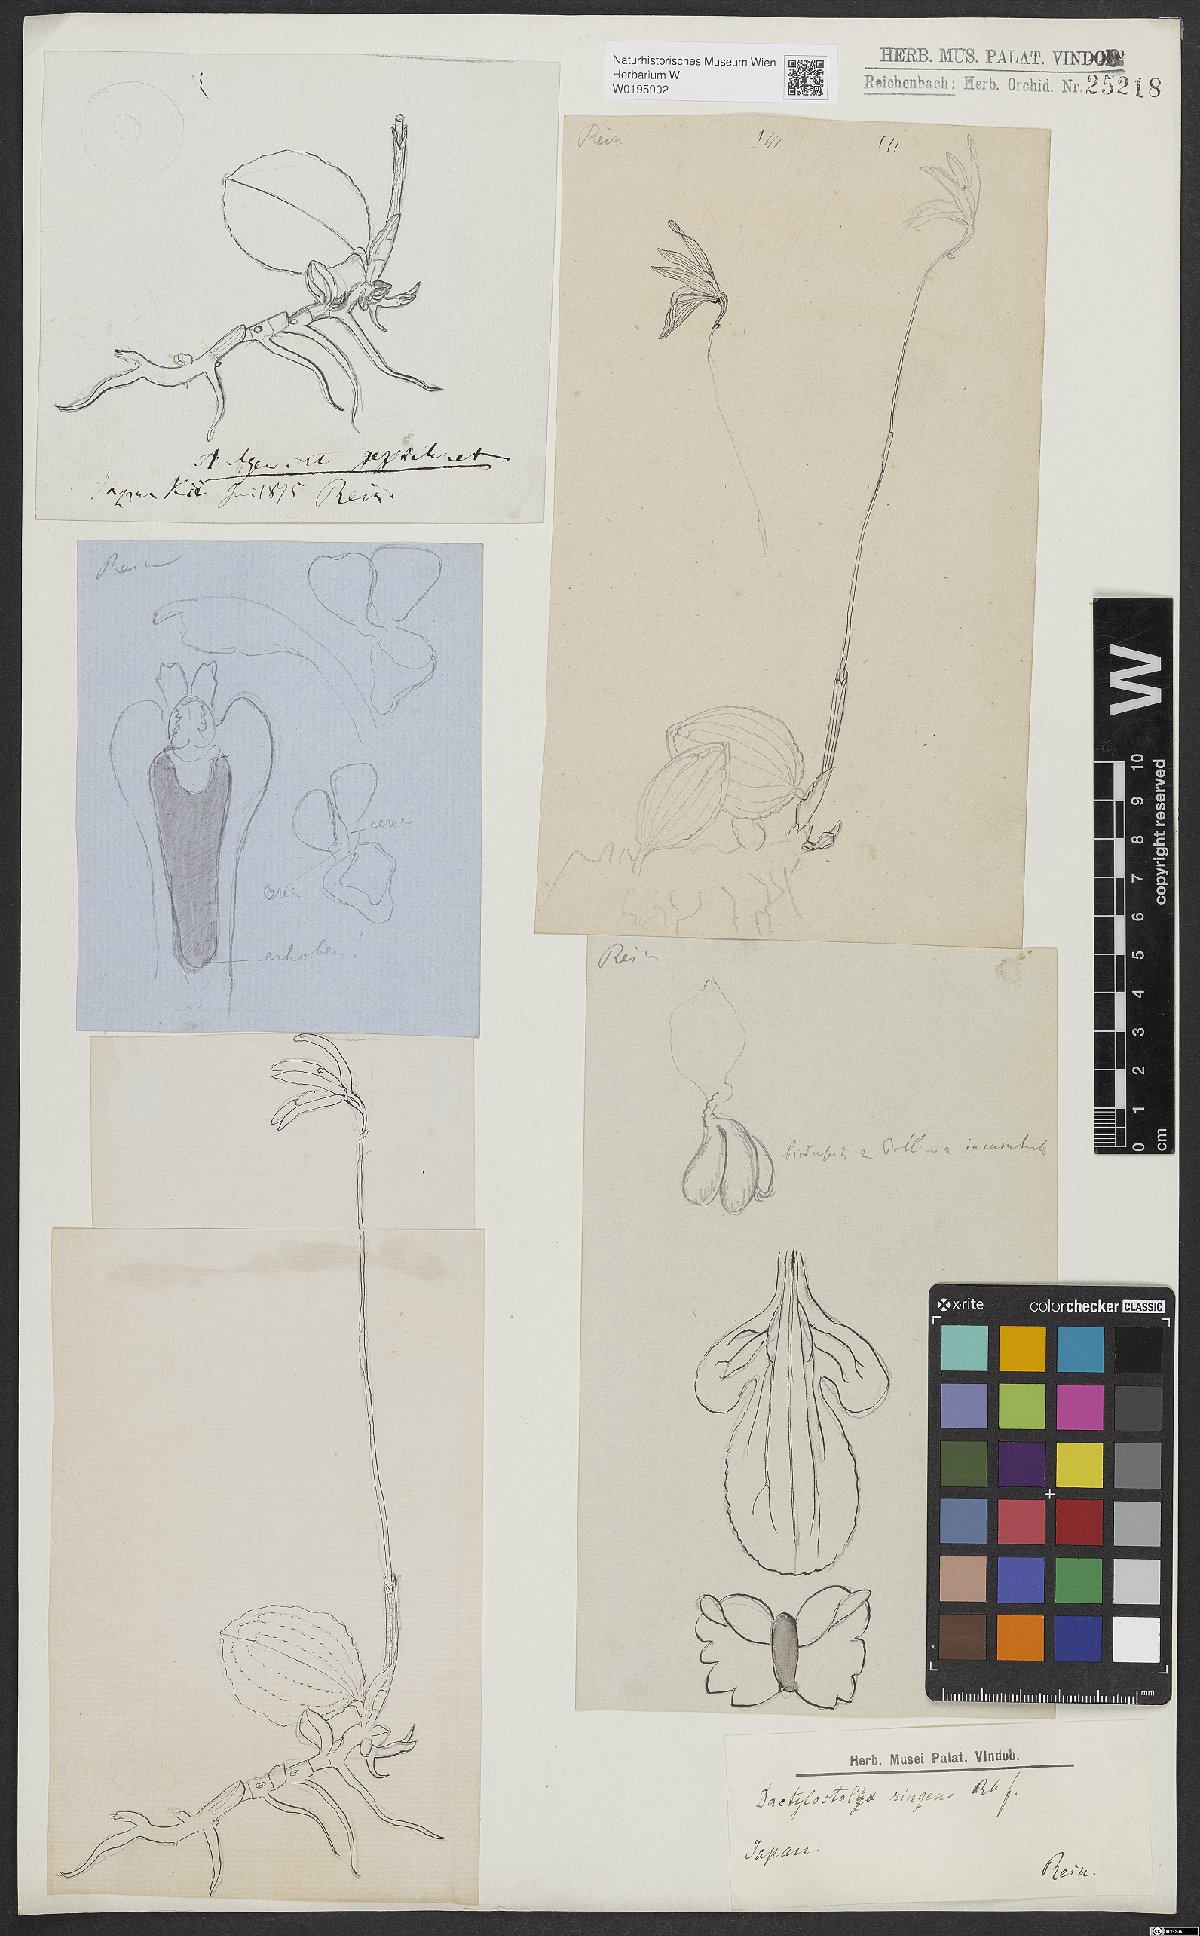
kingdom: Plantae
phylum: Tracheophyta
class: Liliopsida
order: Asparagales
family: Orchidaceae
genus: Dactylostalix
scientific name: Dactylostalix ringens
